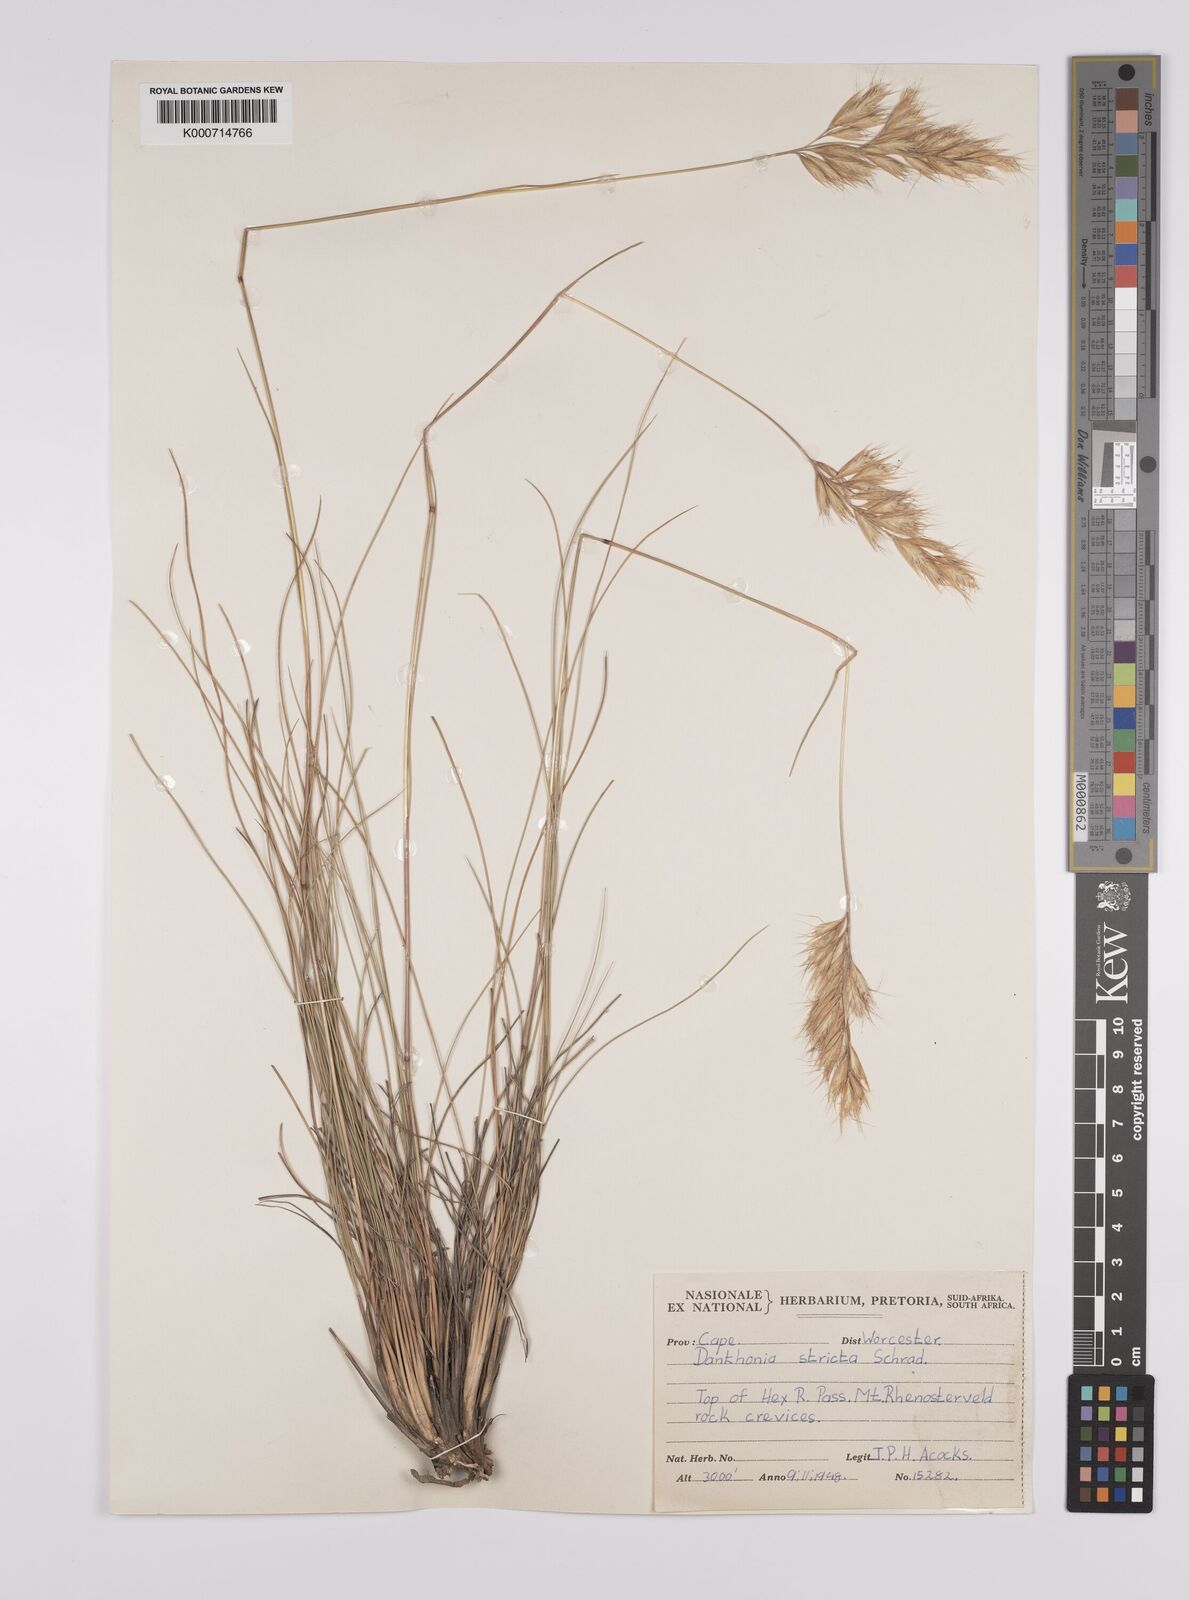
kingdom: Plantae
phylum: Tracheophyta
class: Liliopsida
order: Poales
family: Poaceae
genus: Rytidosperma
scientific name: Rytidosperma
